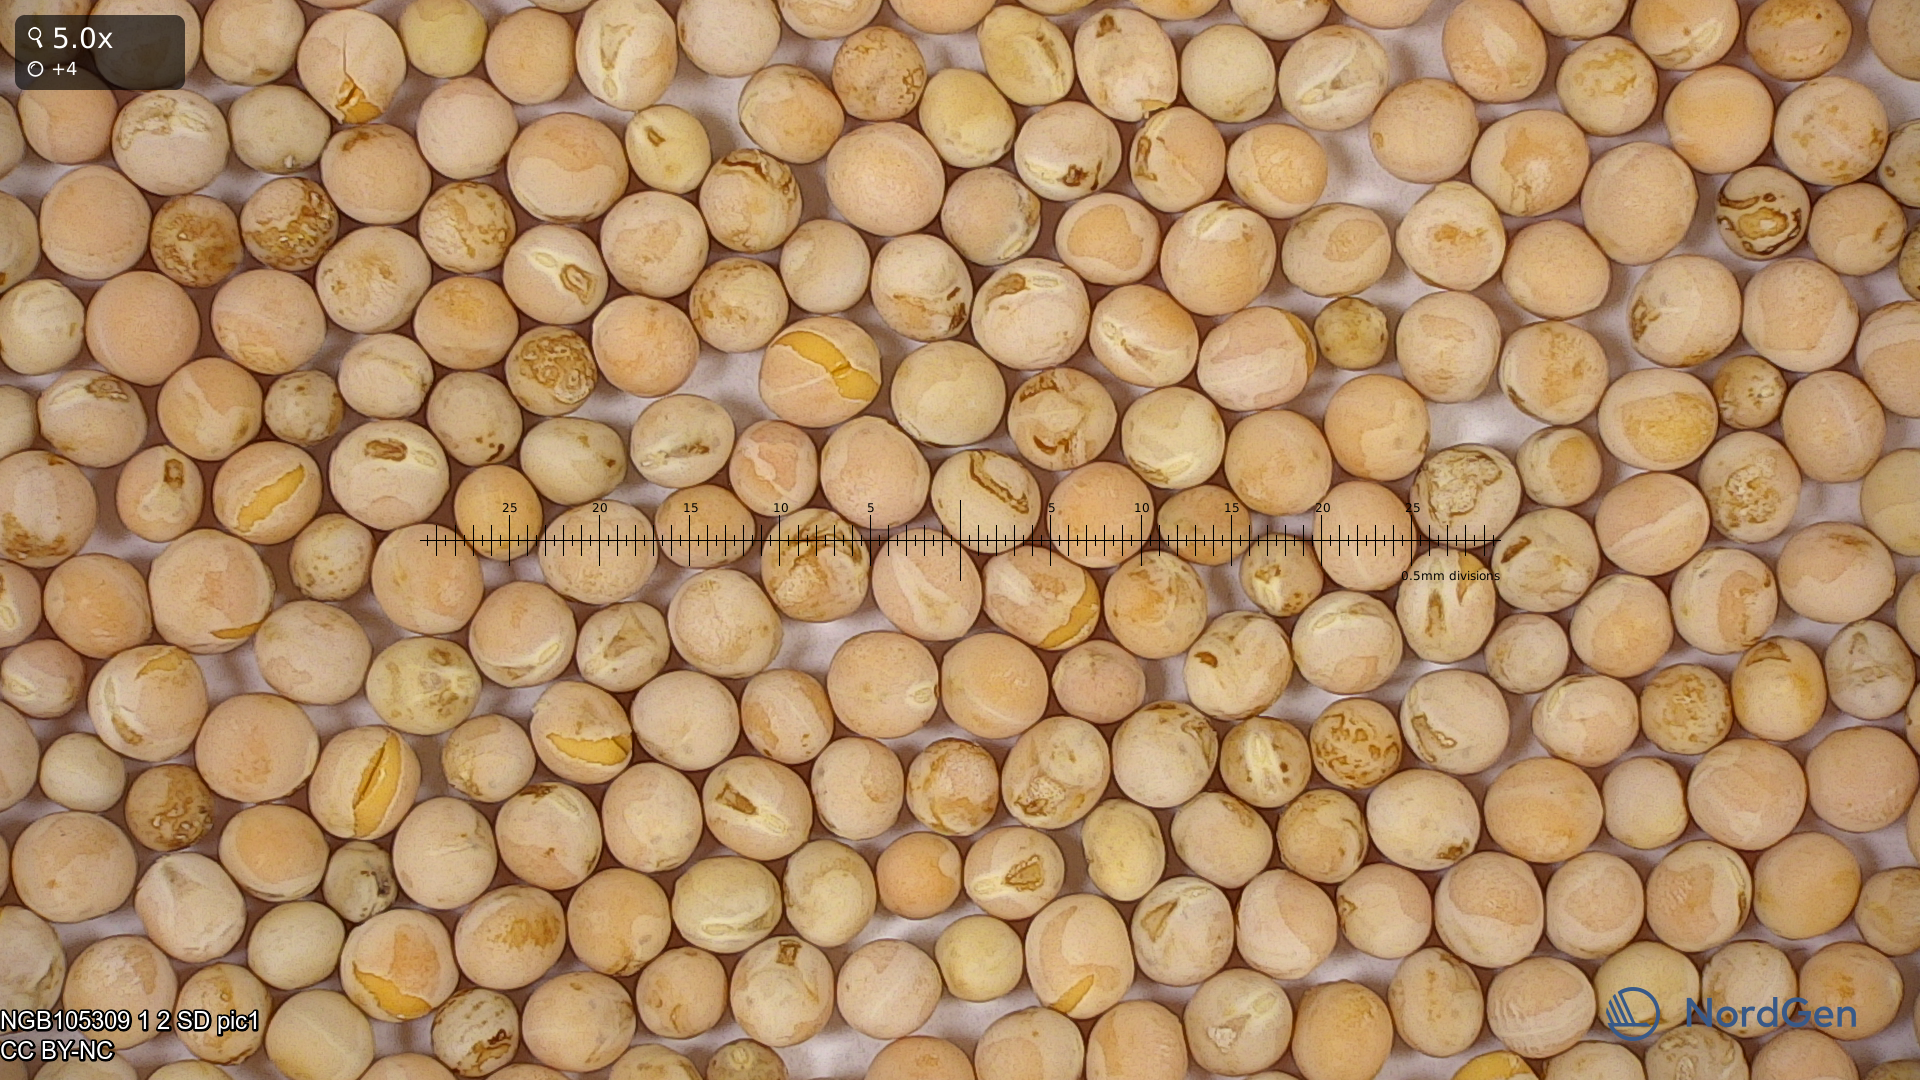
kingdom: Plantae
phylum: Tracheophyta
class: Magnoliopsida
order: Fabales
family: Fabaceae
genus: Lathyrus
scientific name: Lathyrus oleraceus
